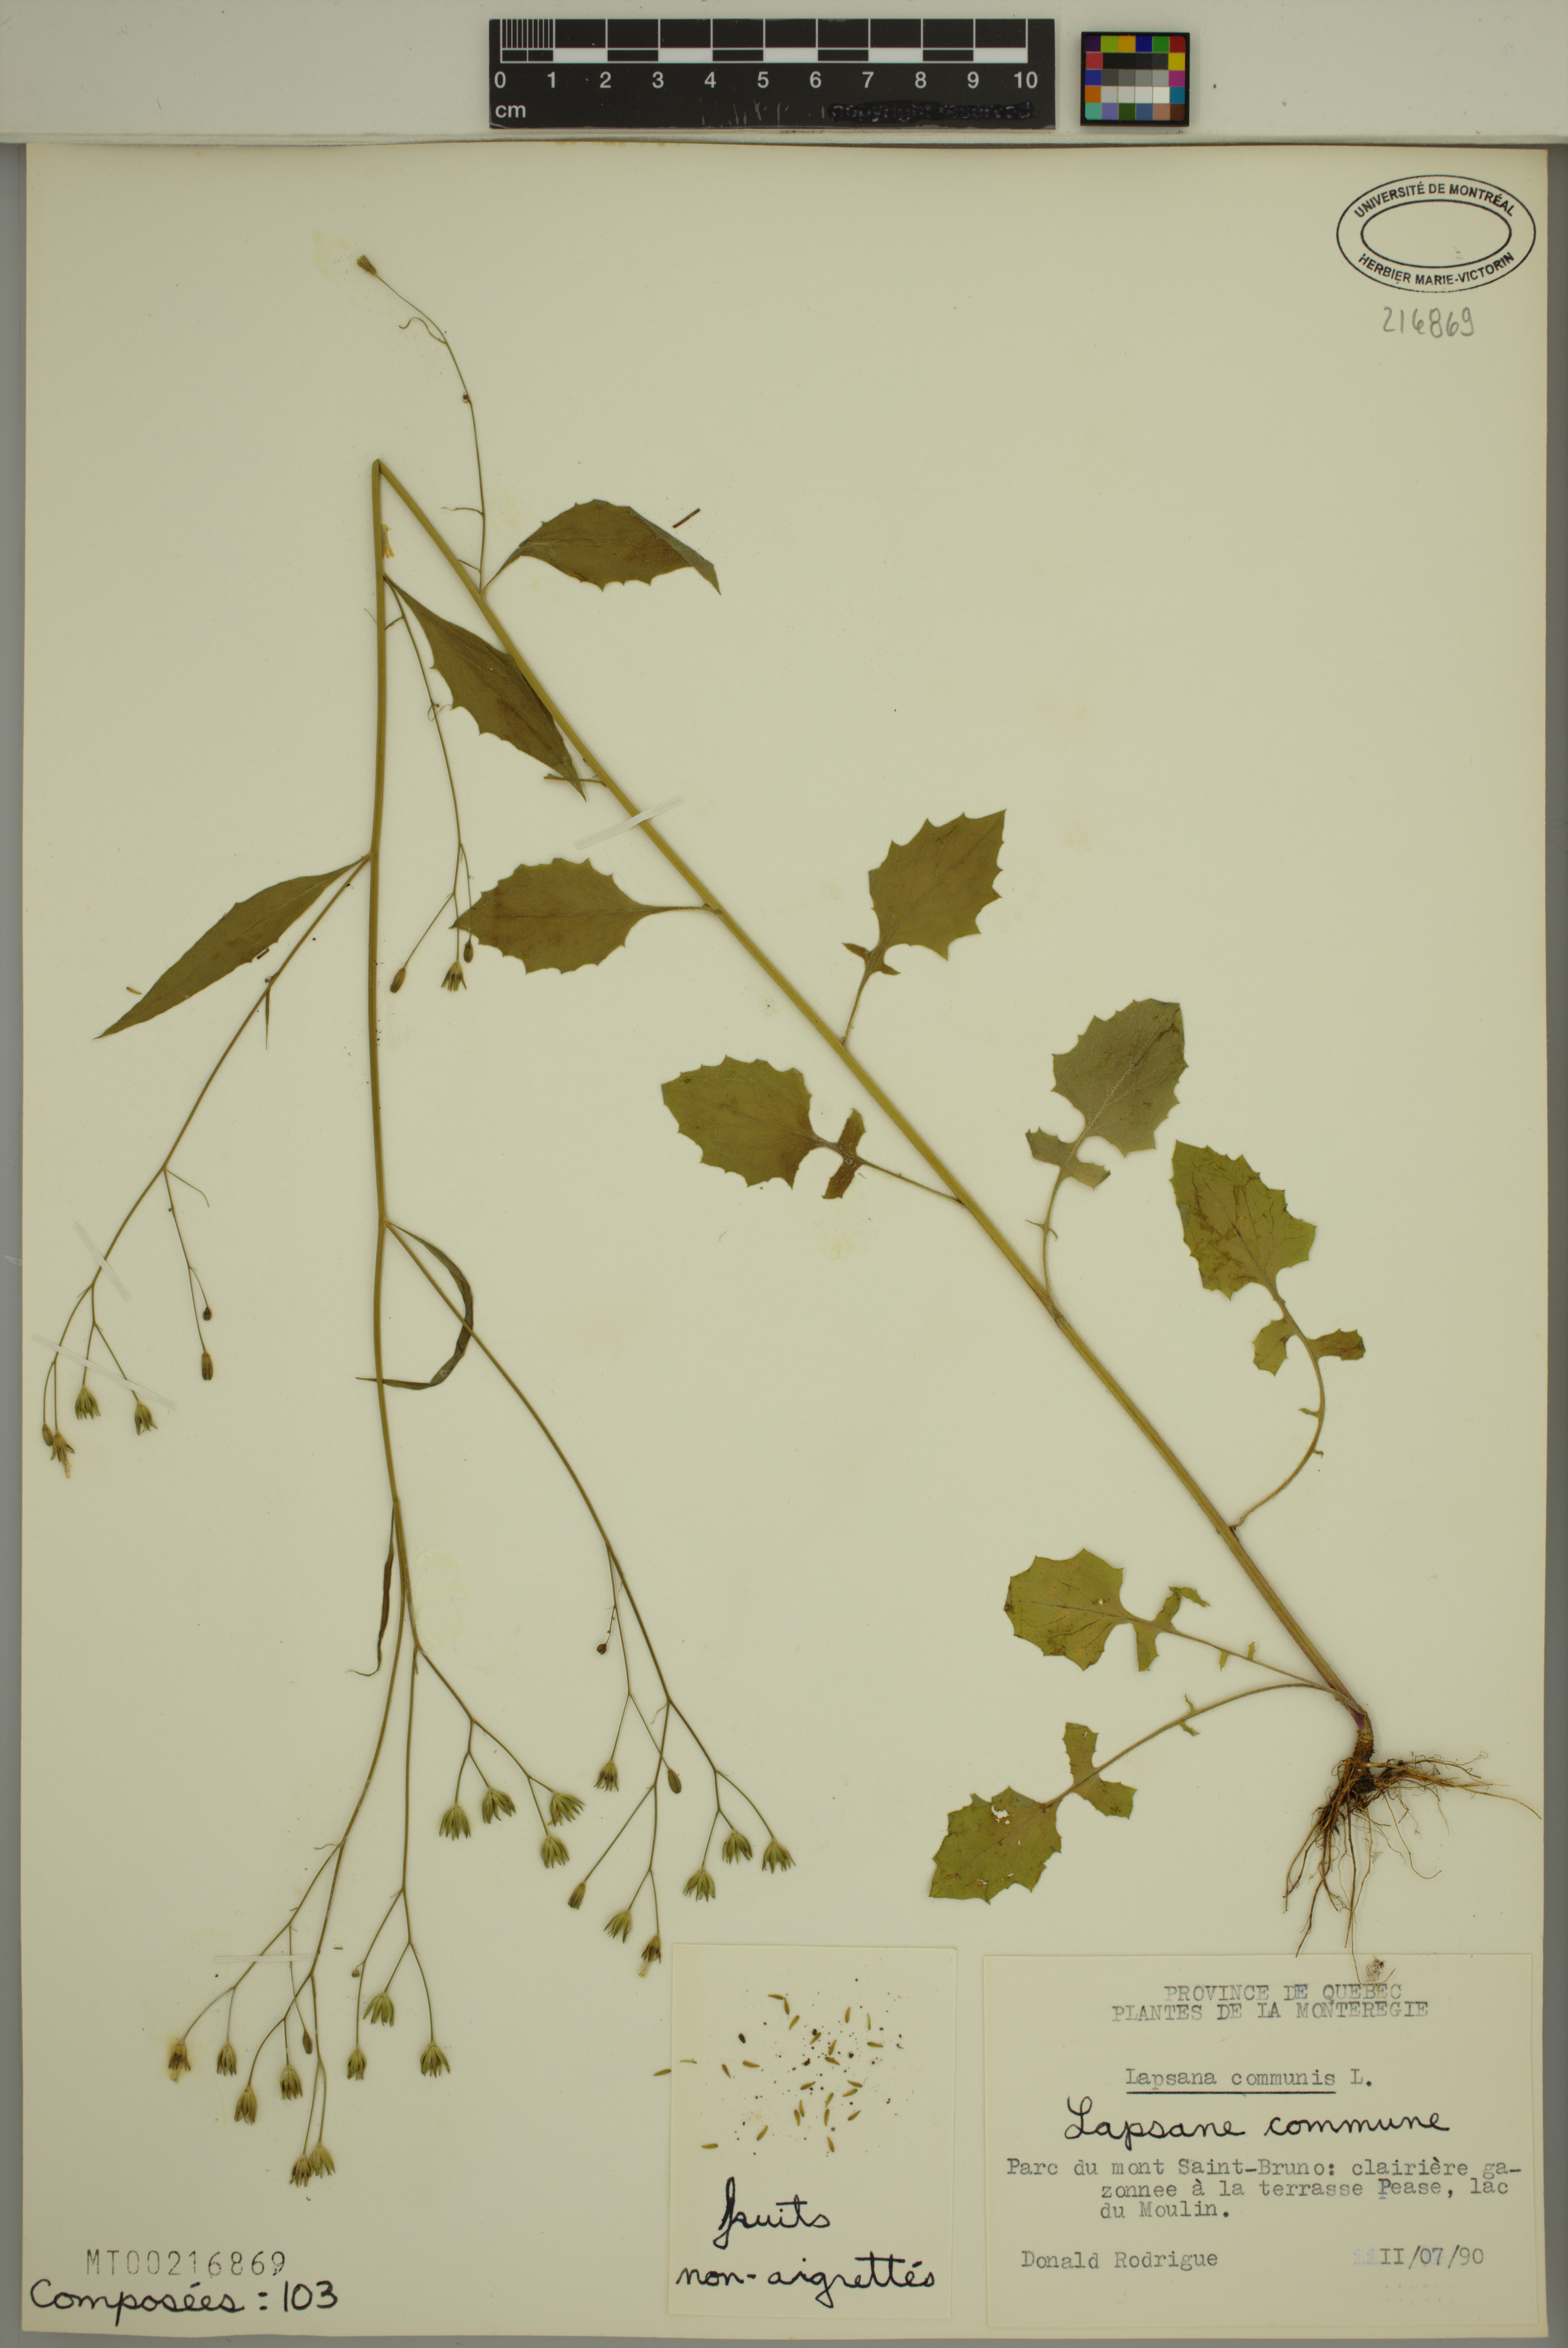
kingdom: Plantae
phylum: Tracheophyta
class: Magnoliopsida
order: Asterales
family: Asteraceae
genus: Lapsana
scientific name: Lapsana communis
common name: Nipplewort
